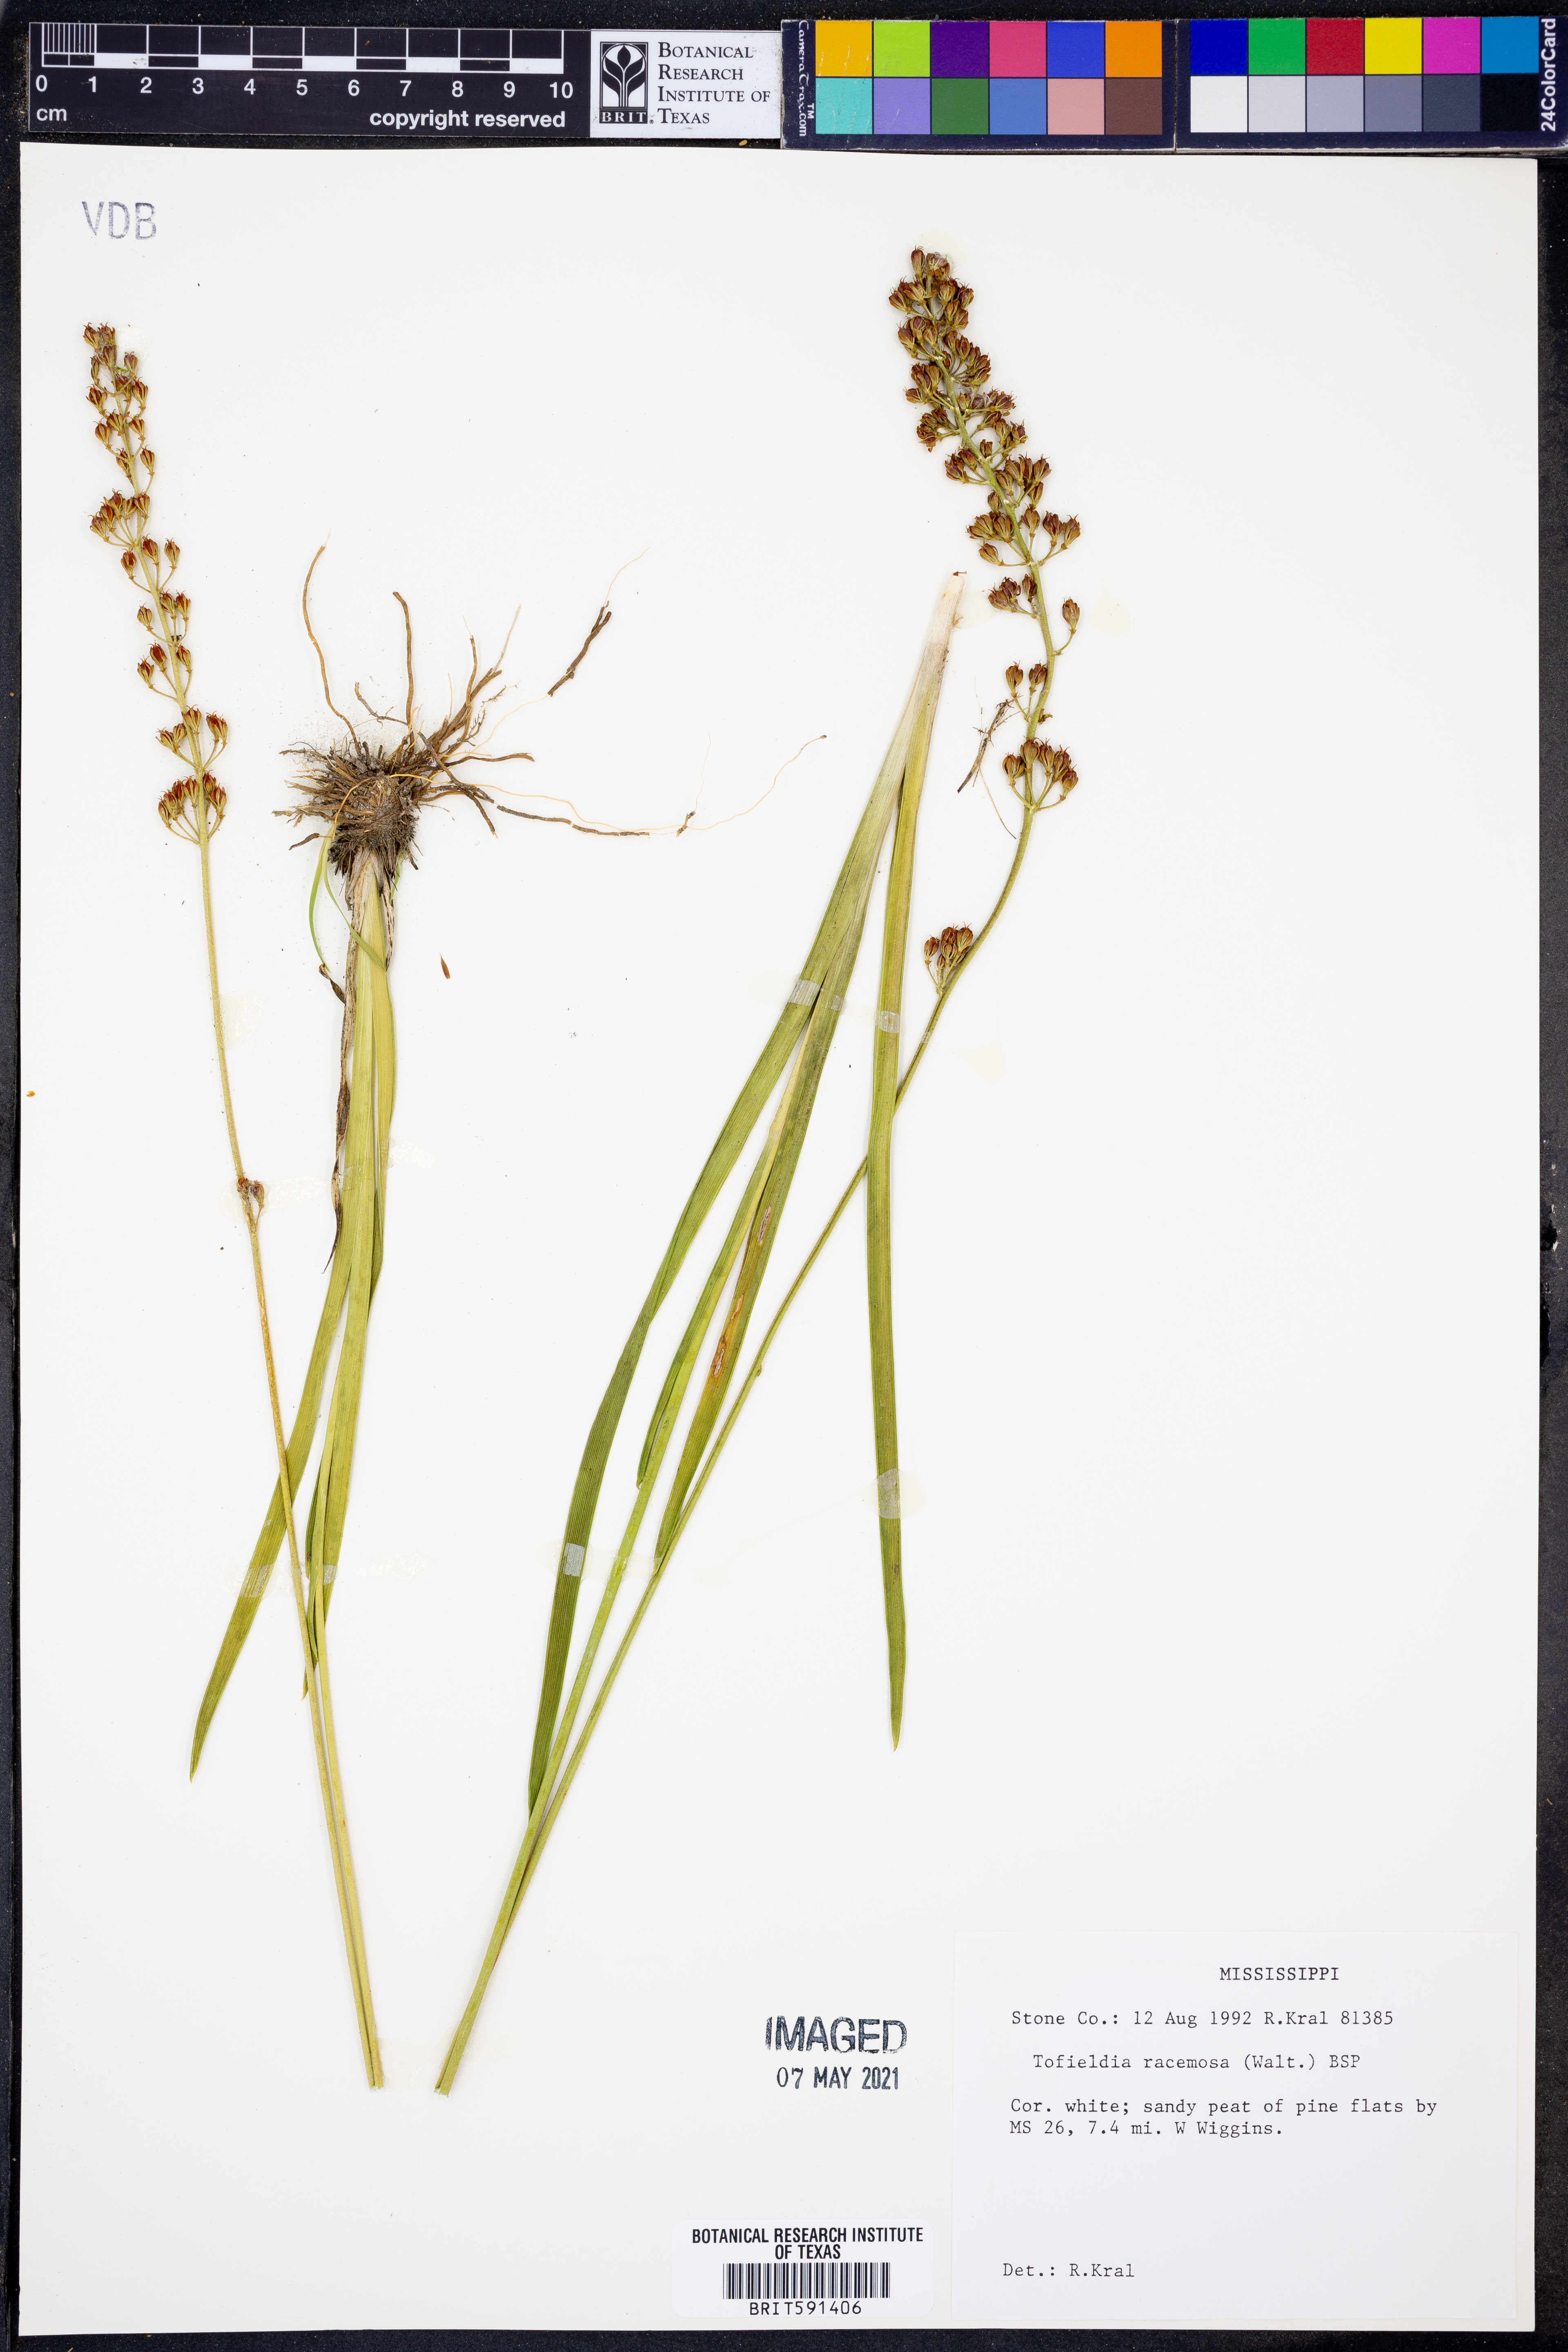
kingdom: Plantae
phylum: Tracheophyta
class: Liliopsida
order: Alismatales
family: Tofieldiaceae
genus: Triantha
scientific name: Triantha racemosa
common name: Coastal false asphodel
